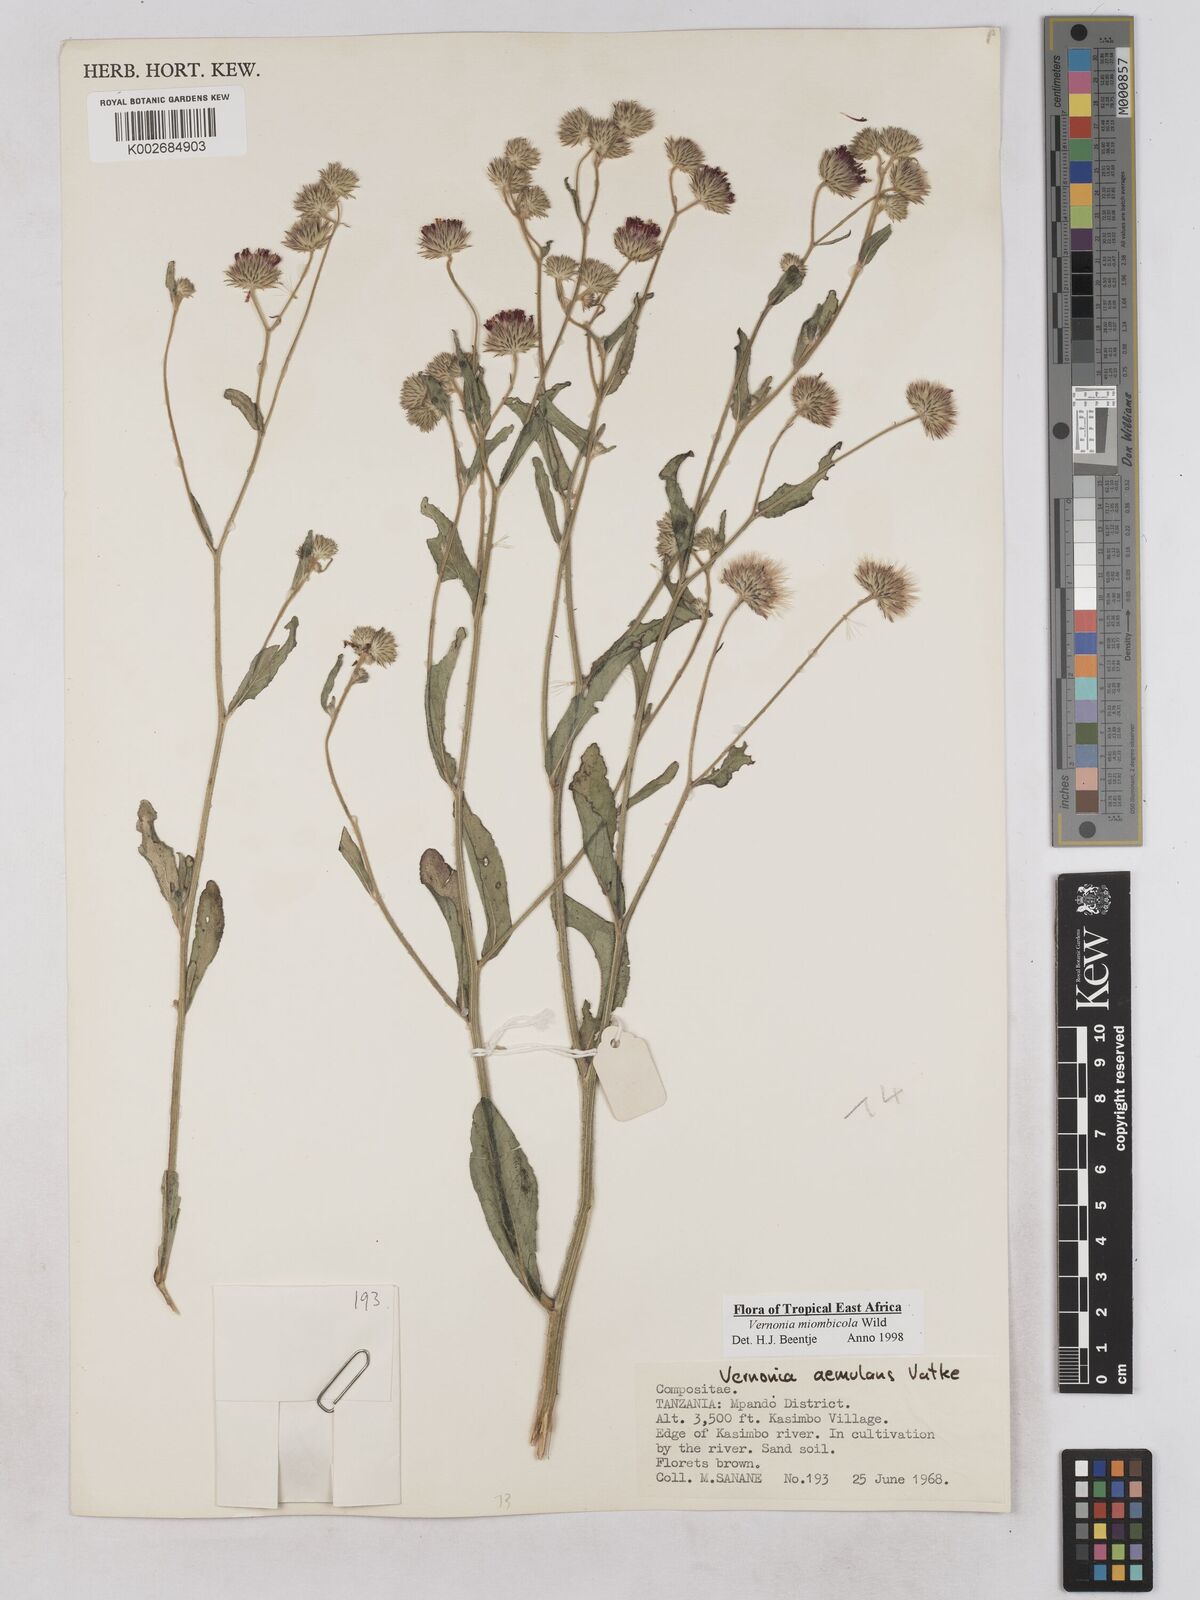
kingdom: Plantae
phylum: Tracheophyta
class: Magnoliopsida
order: Asterales
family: Asteraceae
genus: Vernonia
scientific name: Vernonia miombicola
